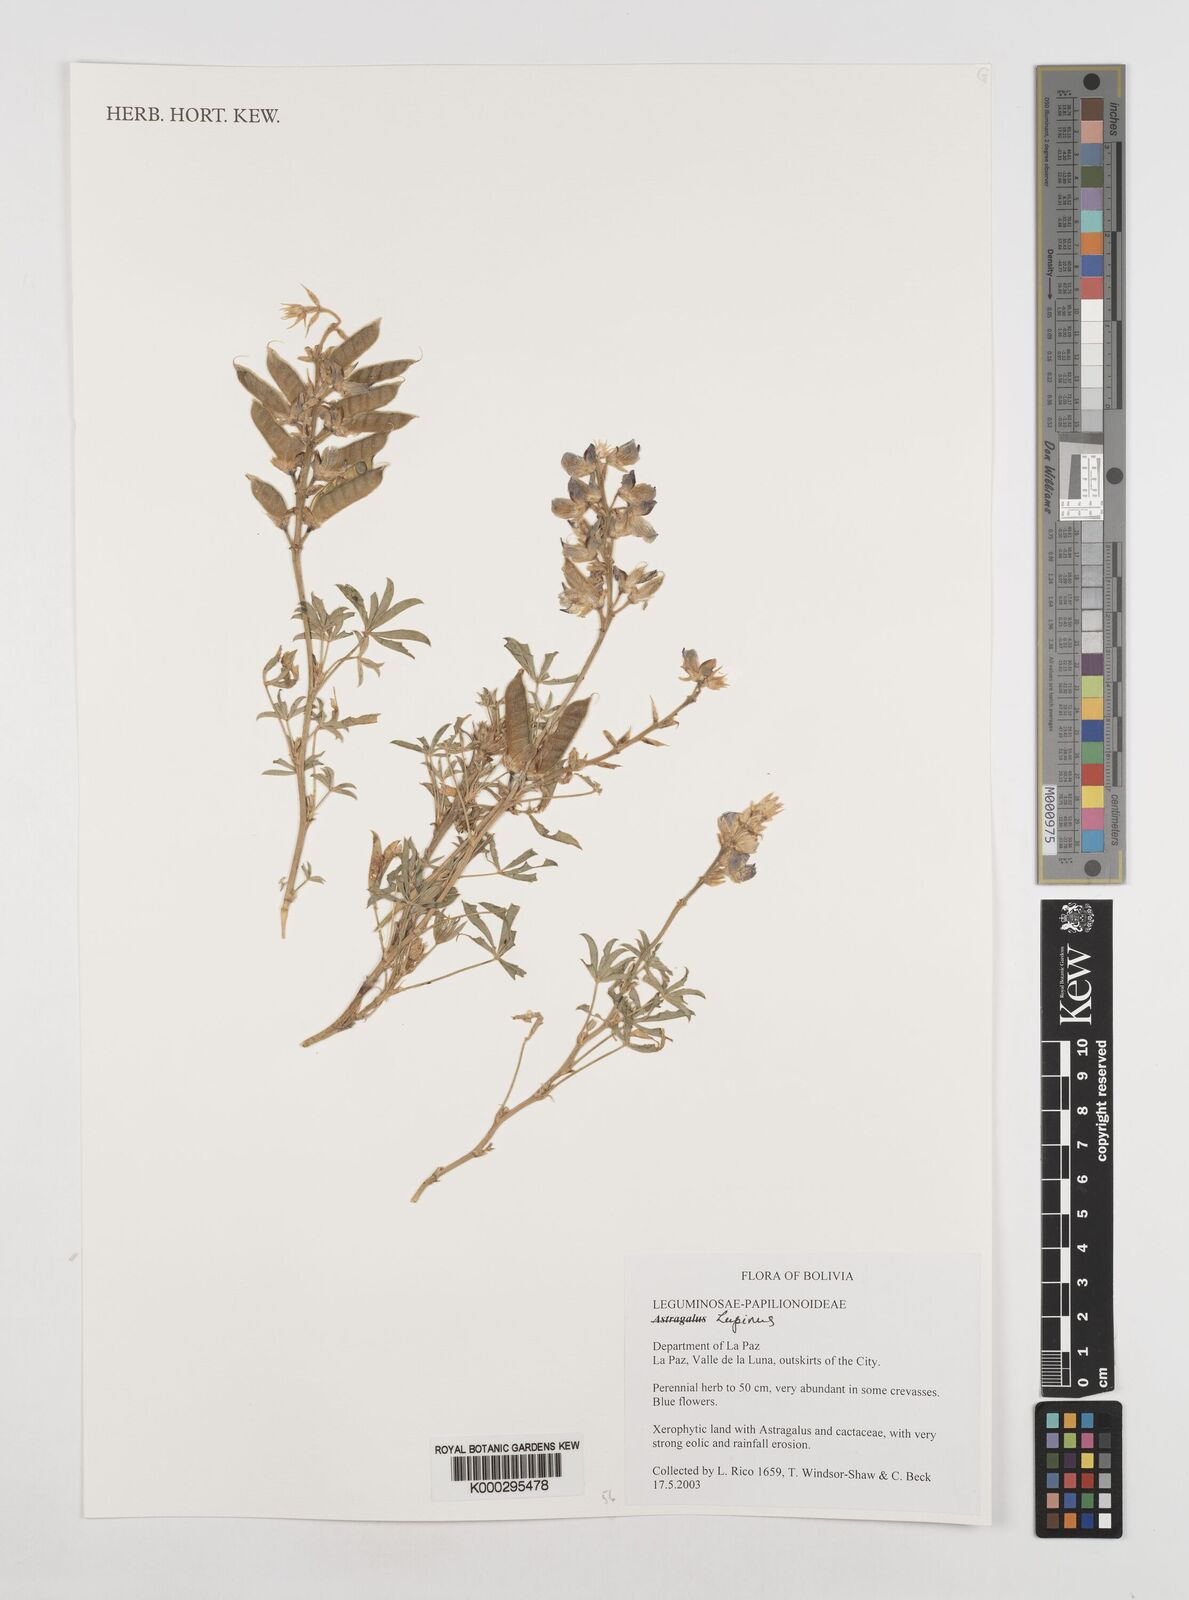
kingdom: Plantae
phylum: Tracheophyta
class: Magnoliopsida
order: Fabales
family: Fabaceae
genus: Lupinus
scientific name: Lupinus
